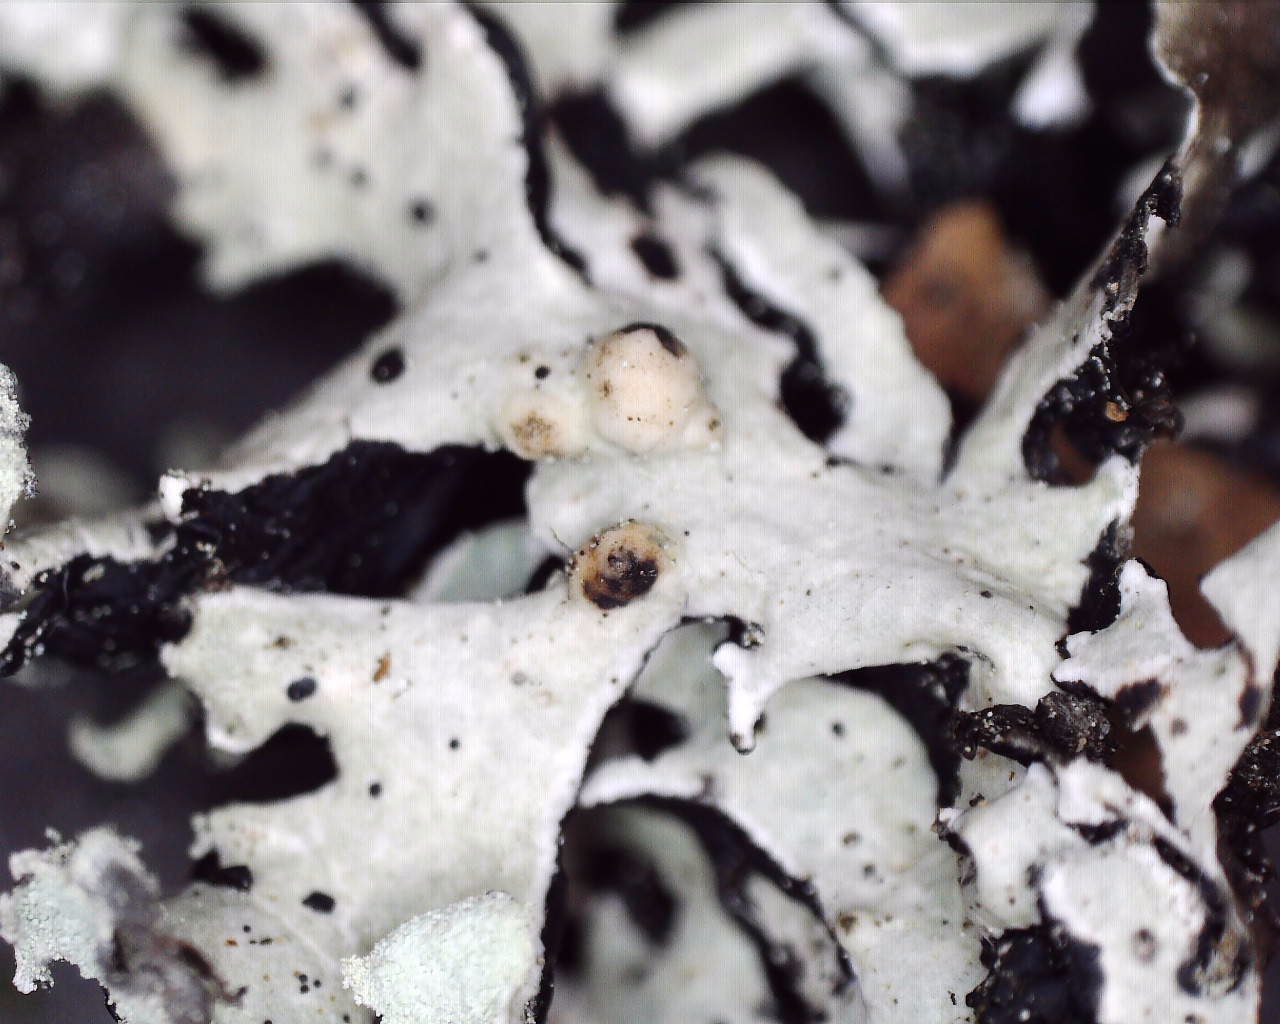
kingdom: Fungi
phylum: Basidiomycota
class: Tremellomycetes
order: Tremellales
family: Tremellaceae
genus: Tremella
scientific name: Tremella hypogymniae
